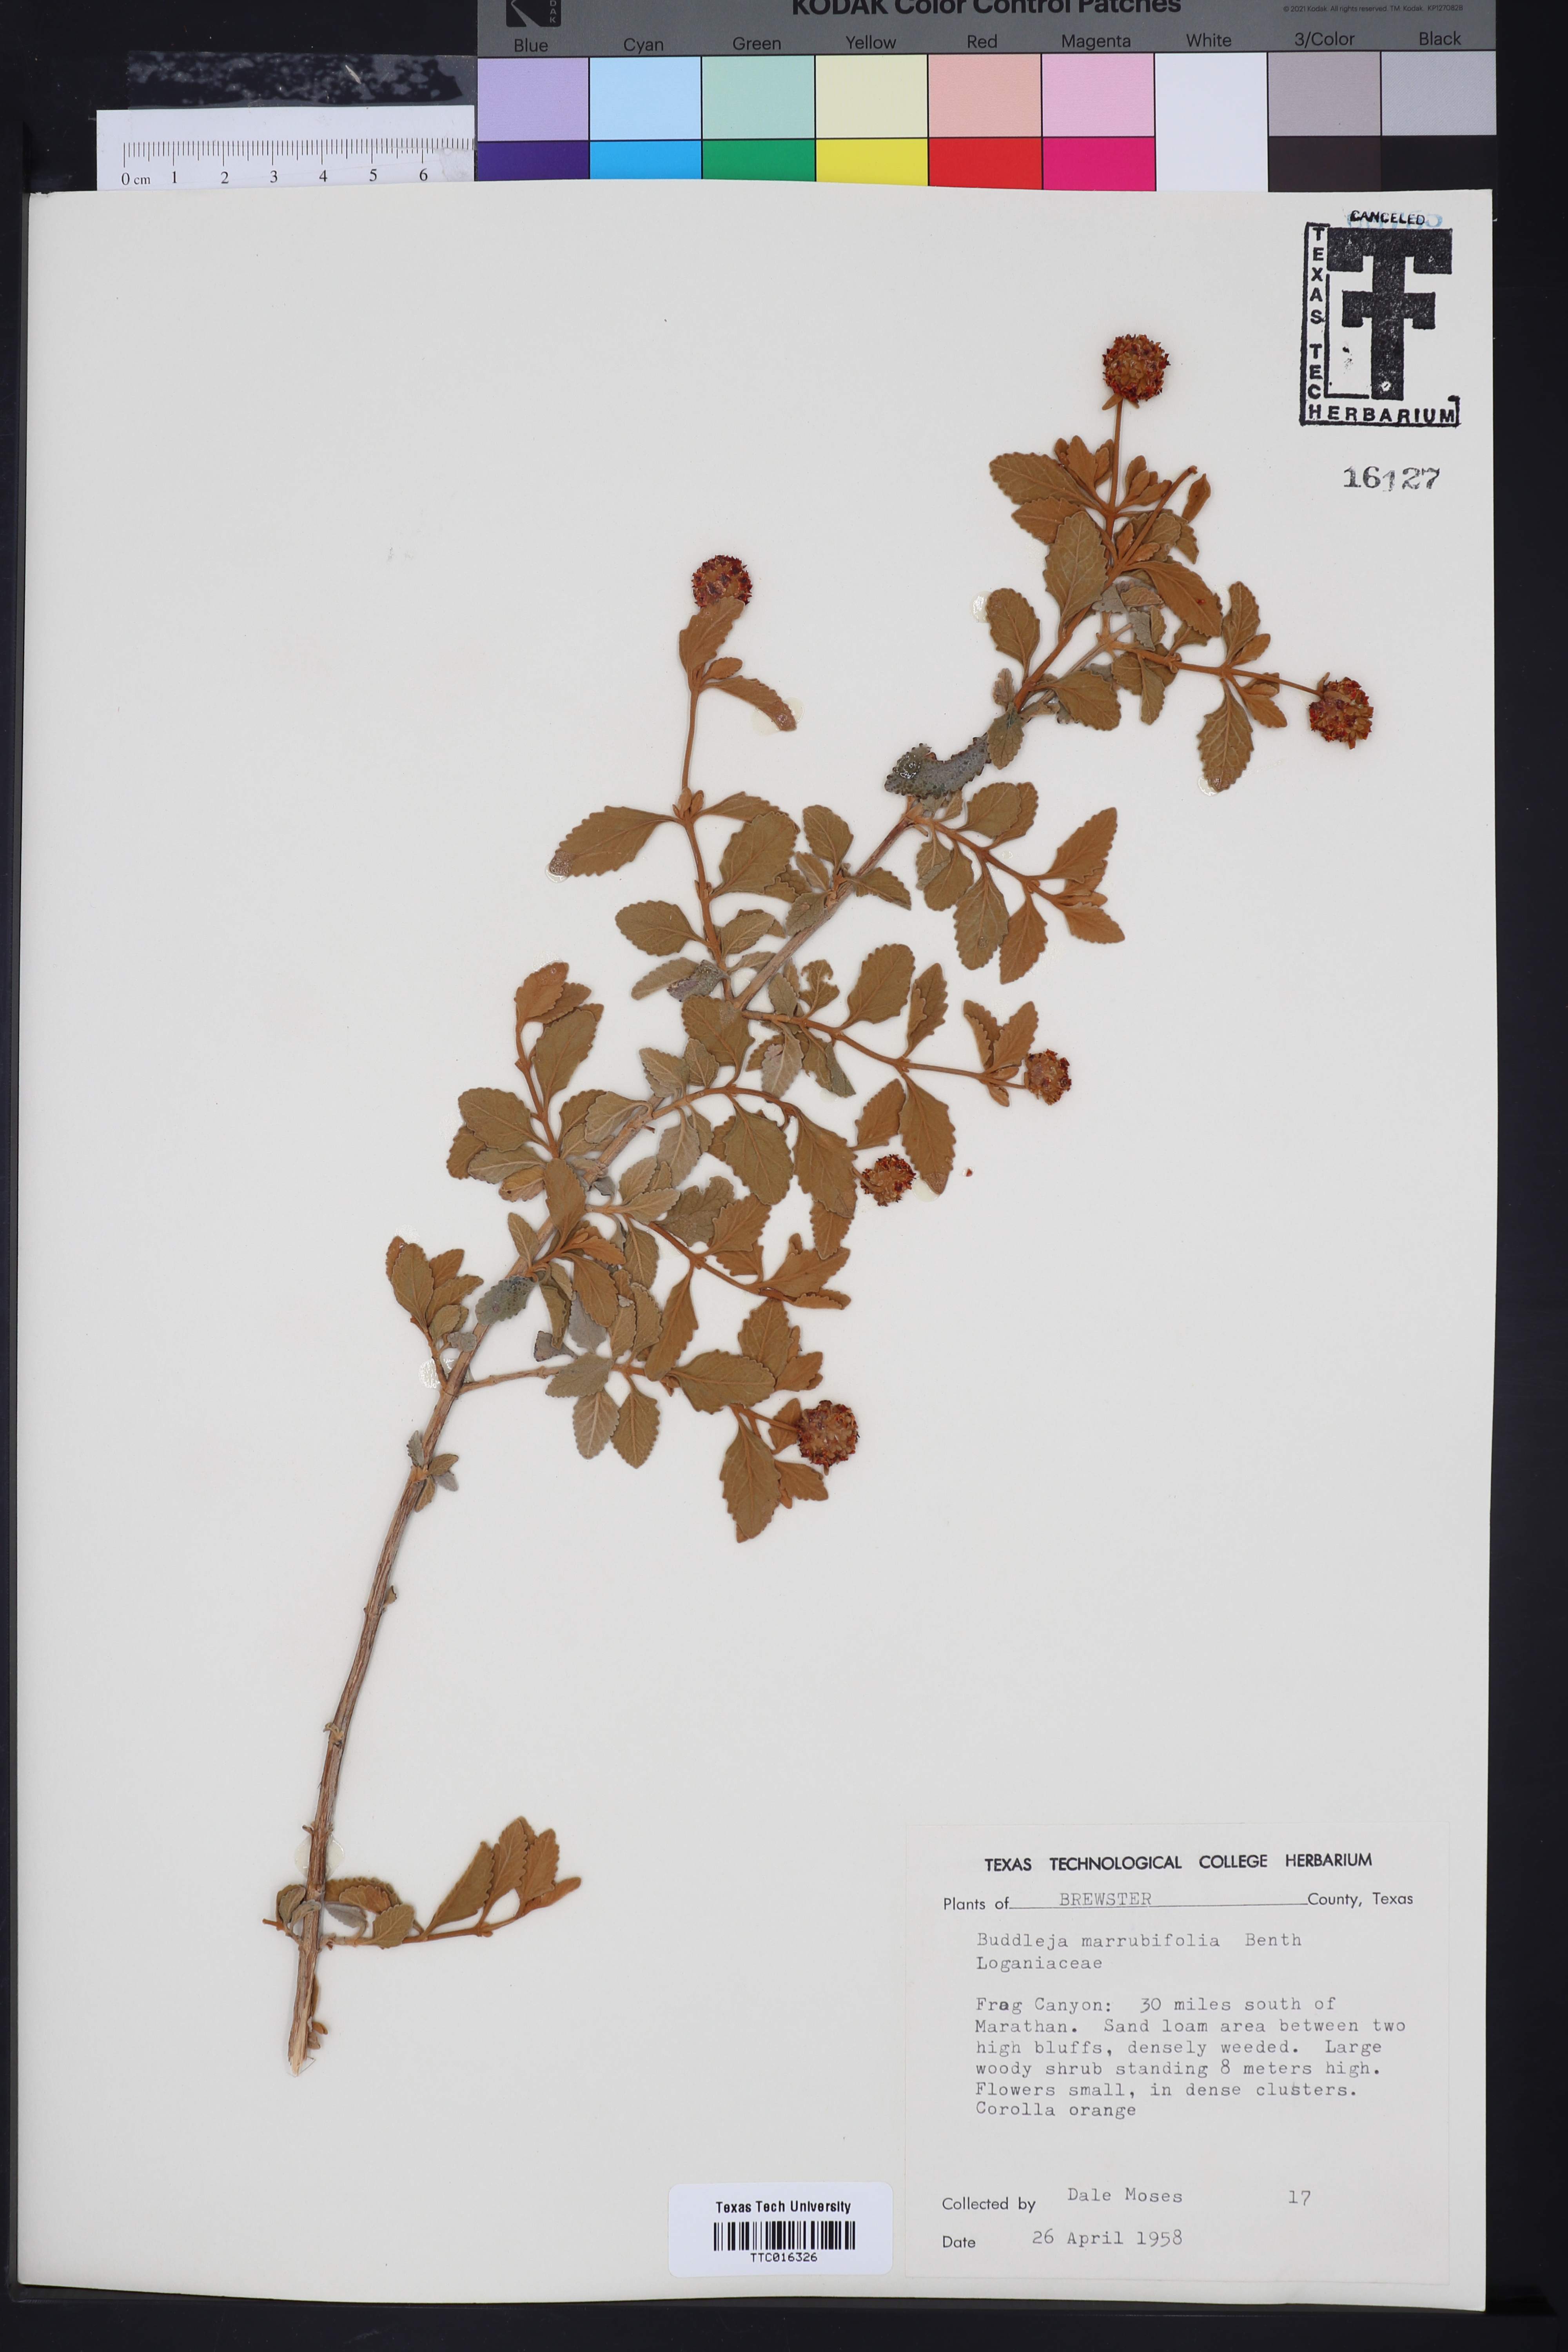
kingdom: Plantae
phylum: Tracheophyta
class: Magnoliopsida
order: Lamiales
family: Scrophulariaceae
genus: Buddleja
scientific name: Buddleja marrubiifolia
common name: Woolly butterfly-bush
